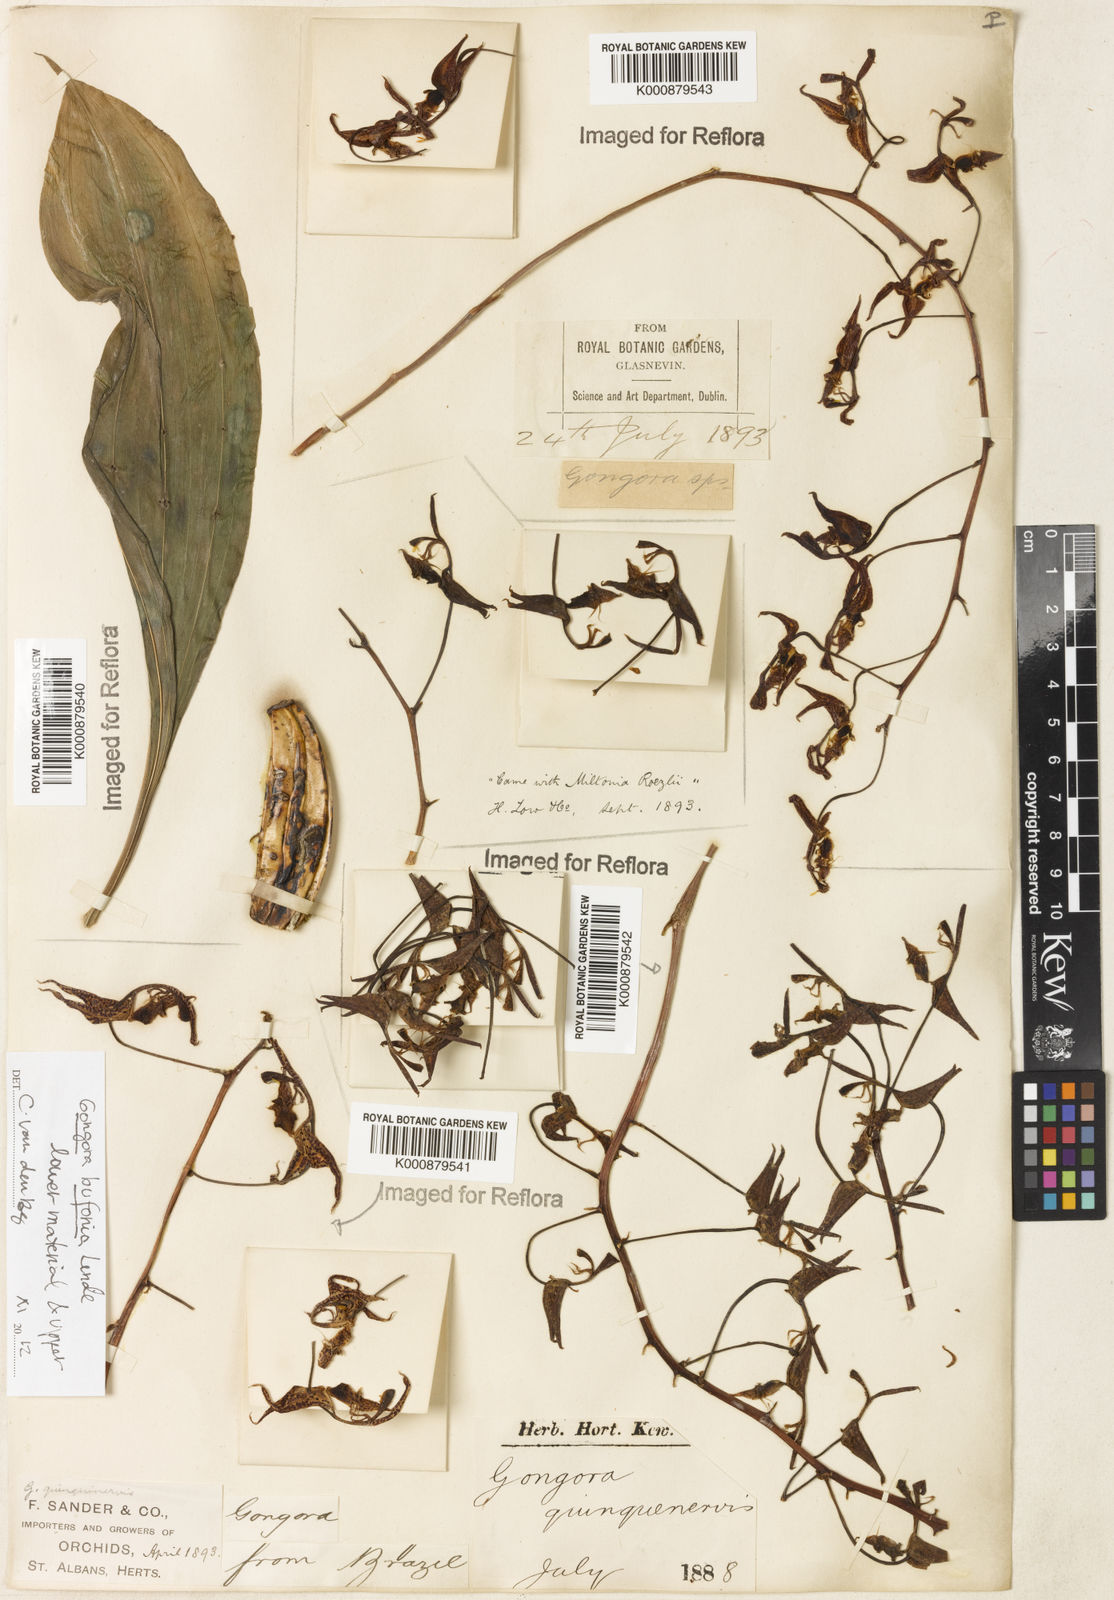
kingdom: Plantae
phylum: Tracheophyta
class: Liliopsida
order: Asparagales
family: Orchidaceae
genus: Gongora
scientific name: Gongora bufonia
